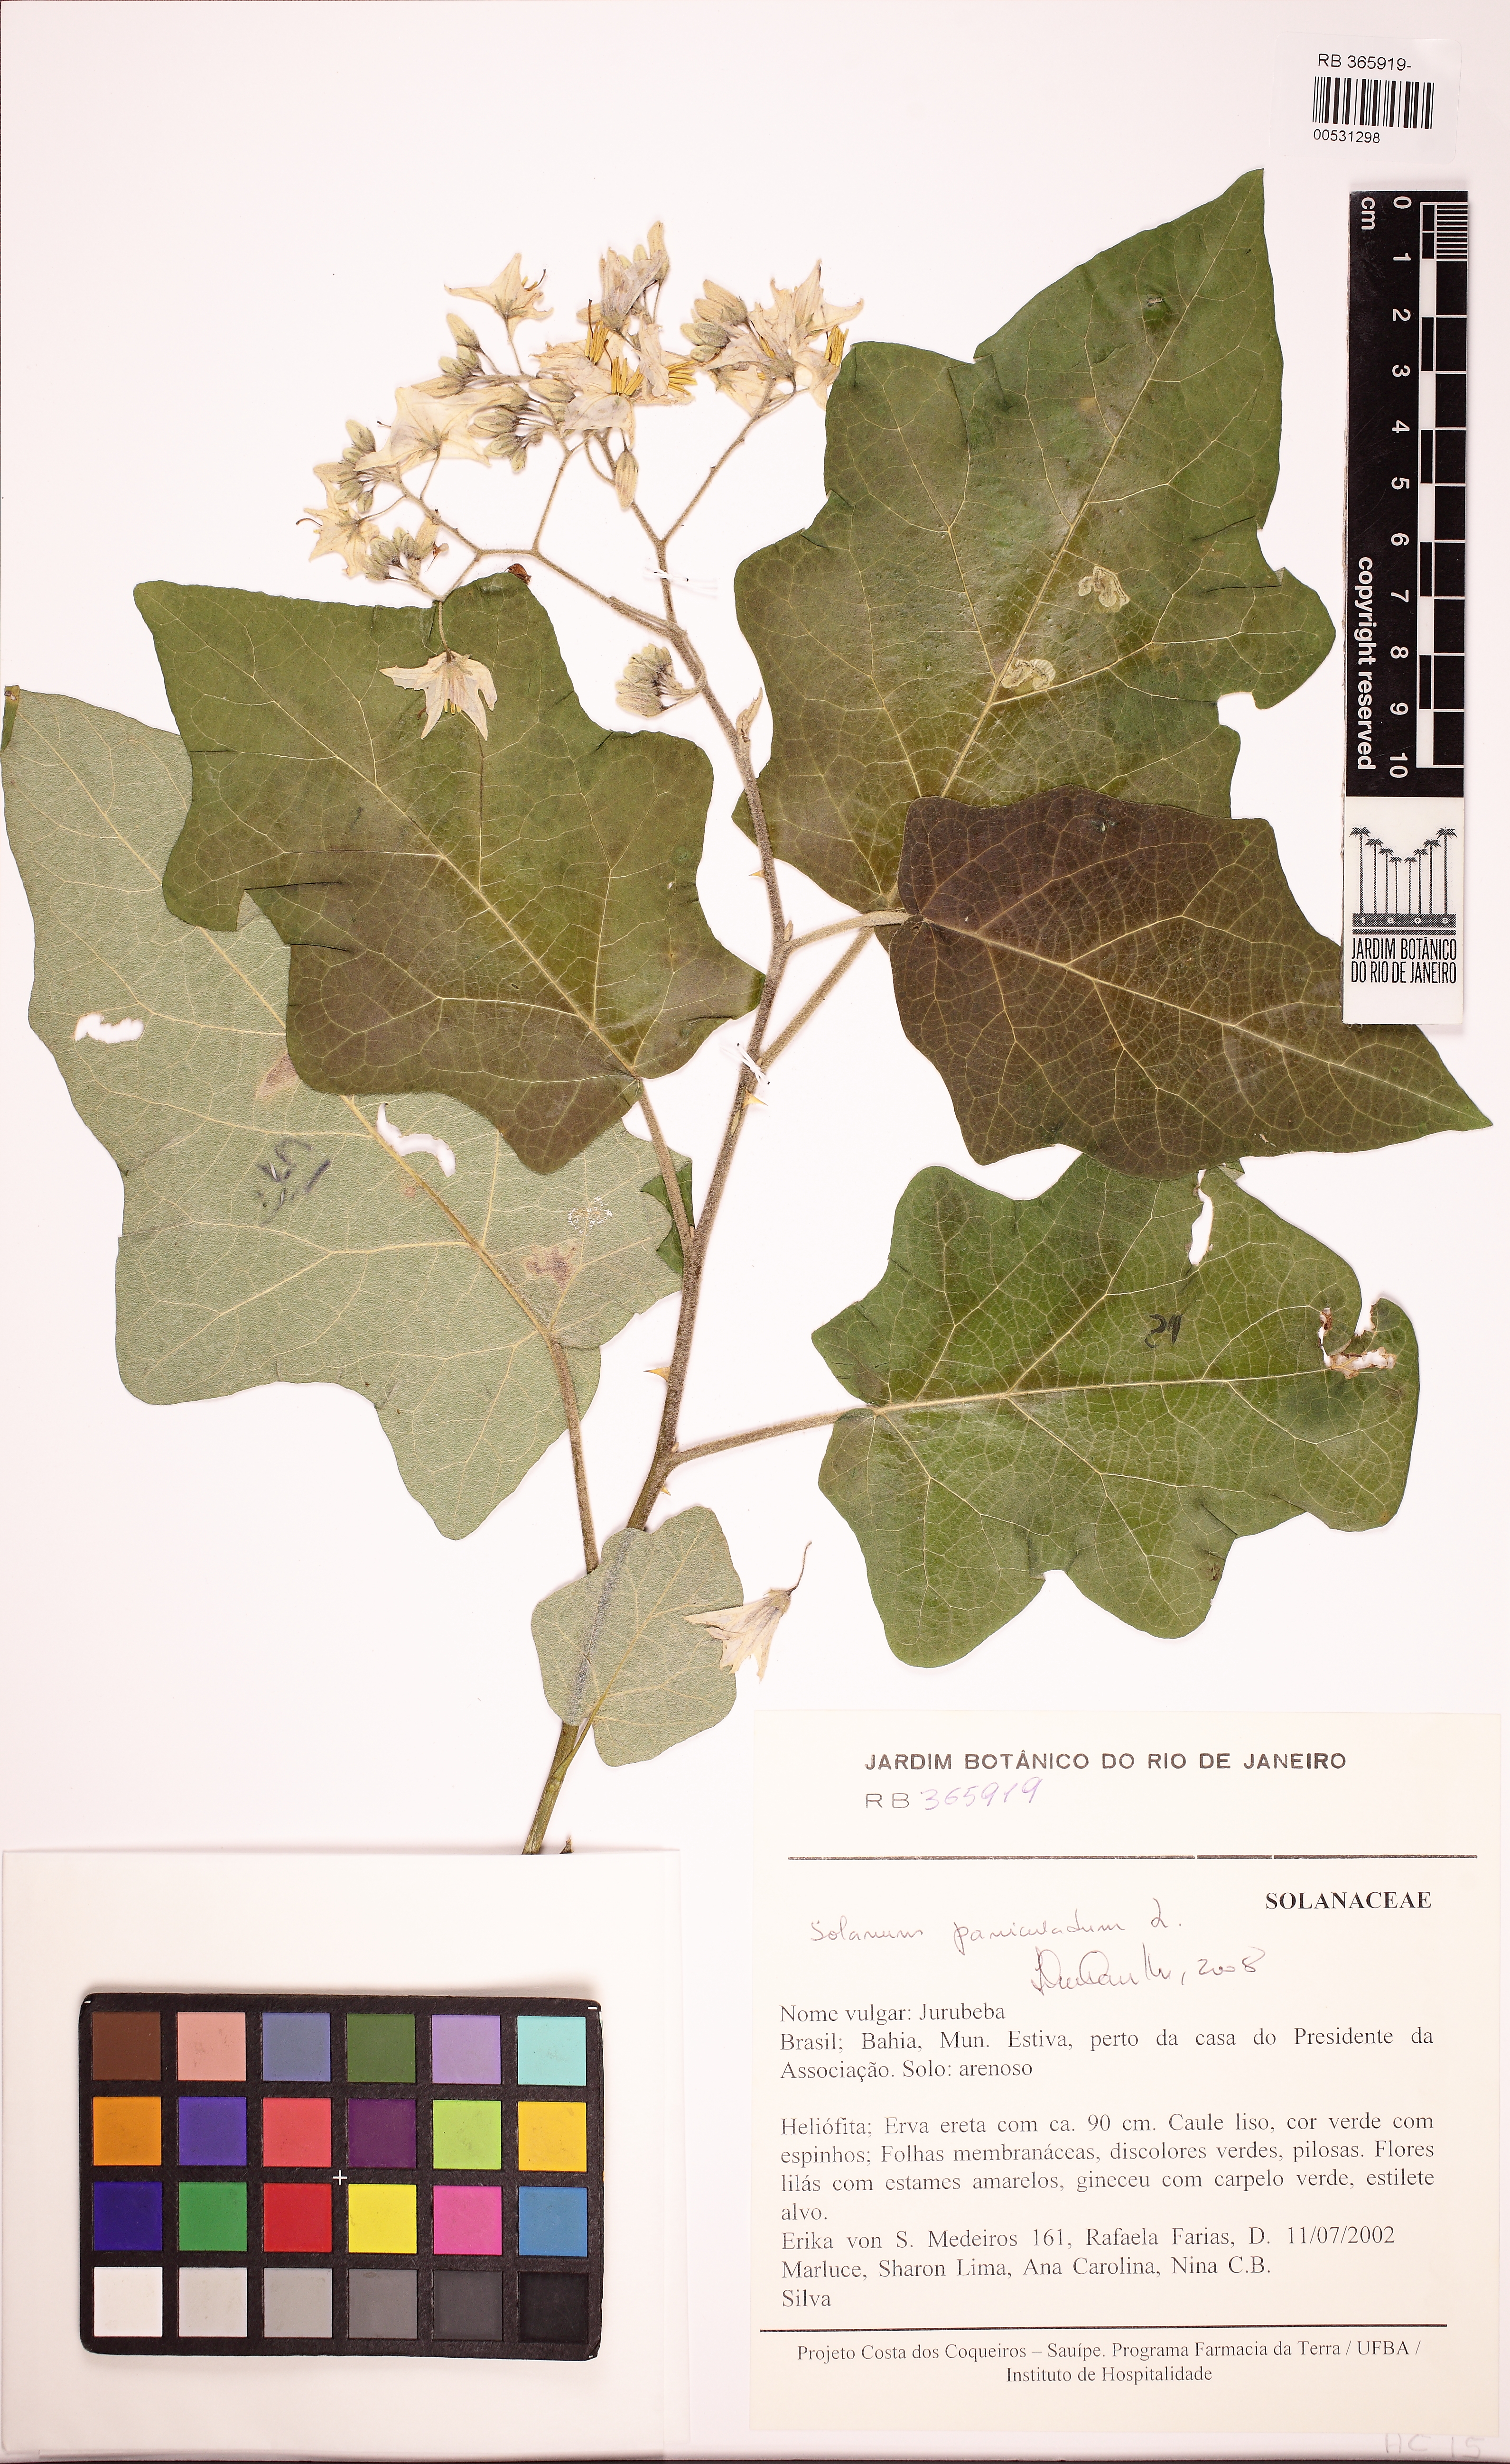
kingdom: Plantae
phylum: Tracheophyta
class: Magnoliopsida
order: Solanales
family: Solanaceae
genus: Solanum
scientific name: Solanum paniculatum
